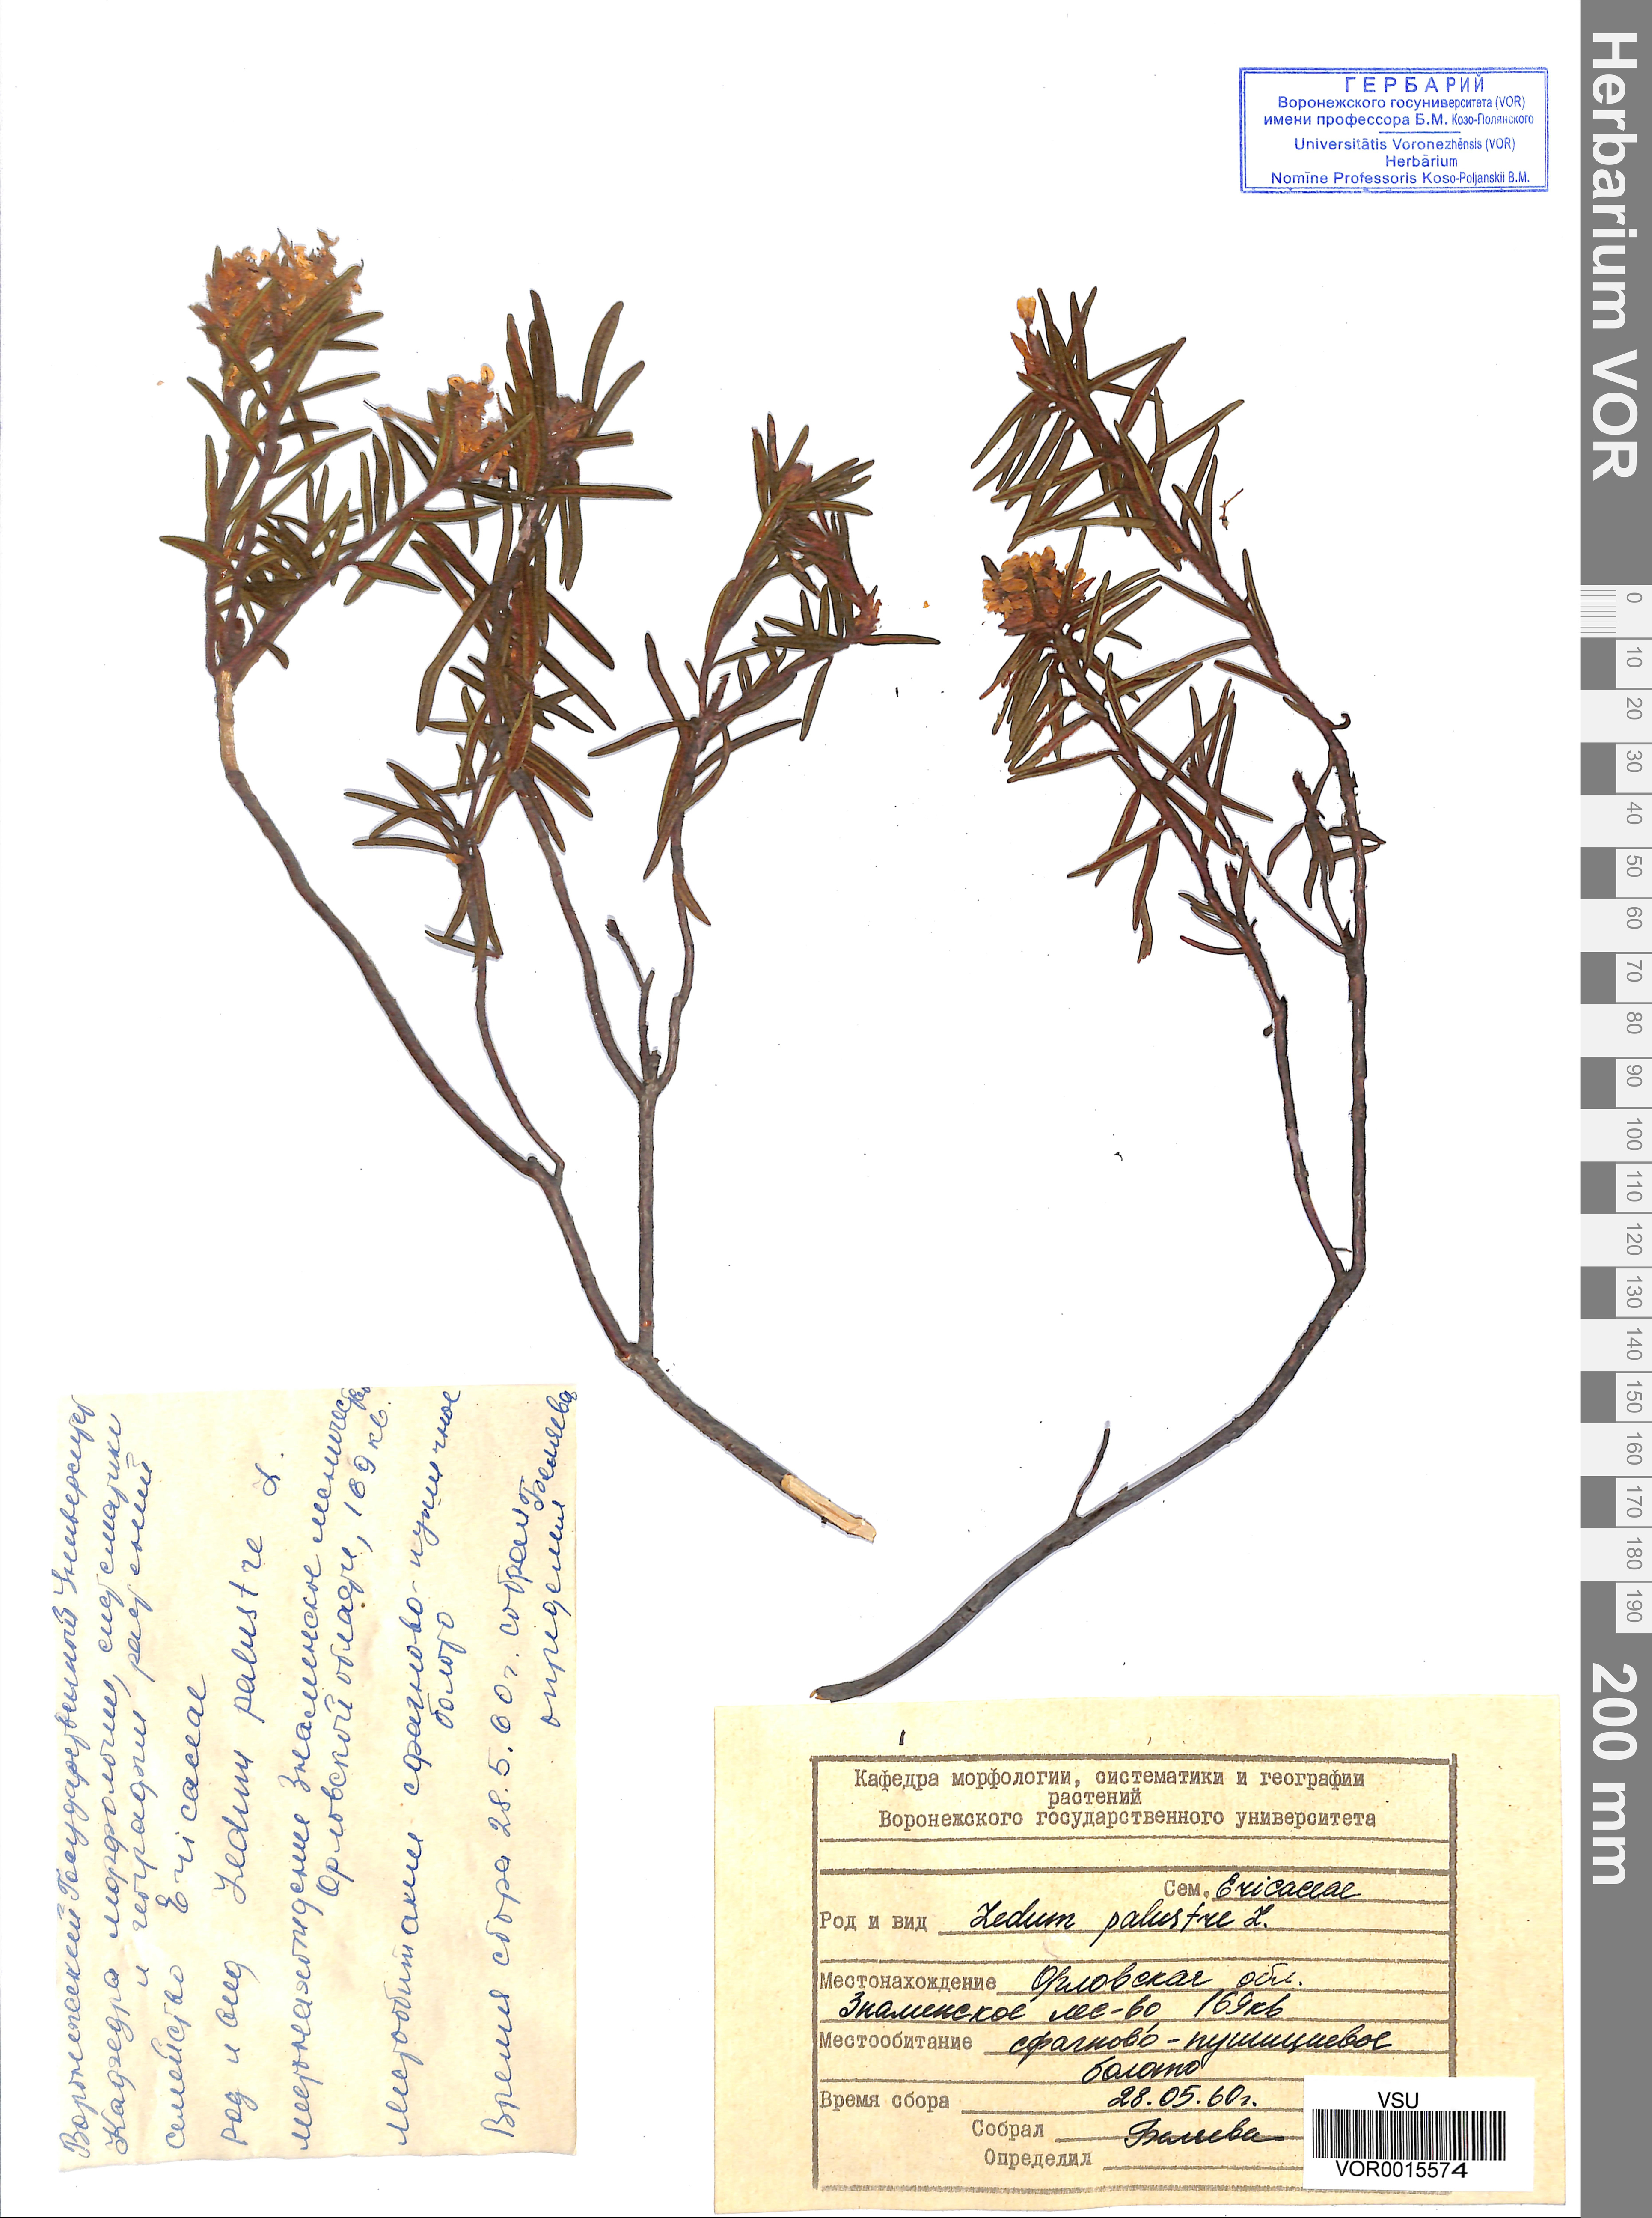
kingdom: Plantae
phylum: Tracheophyta
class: Magnoliopsida
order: Ericales
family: Ericaceae
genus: Rhododendron
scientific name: Rhododendron tomentosum
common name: Marsh labrador tea
